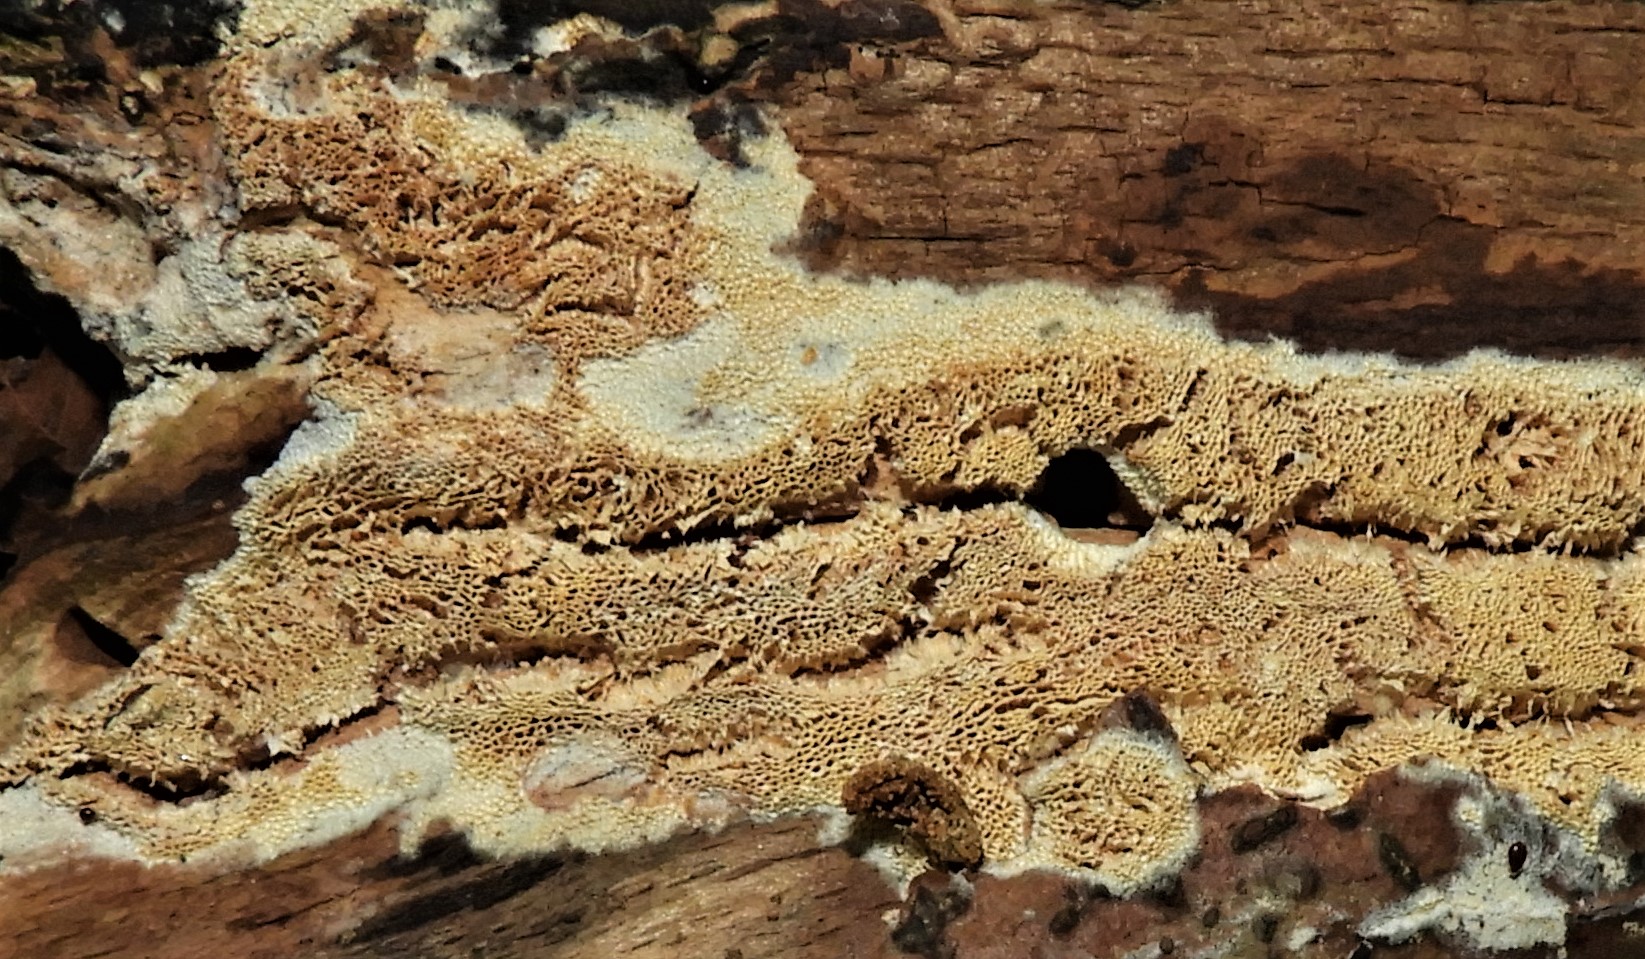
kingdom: Fungi
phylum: Basidiomycota
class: Agaricomycetes
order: Hymenochaetales
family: Schizoporaceae
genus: Xylodon
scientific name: Xylodon subtropicus
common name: labyrint-tandsvamp
